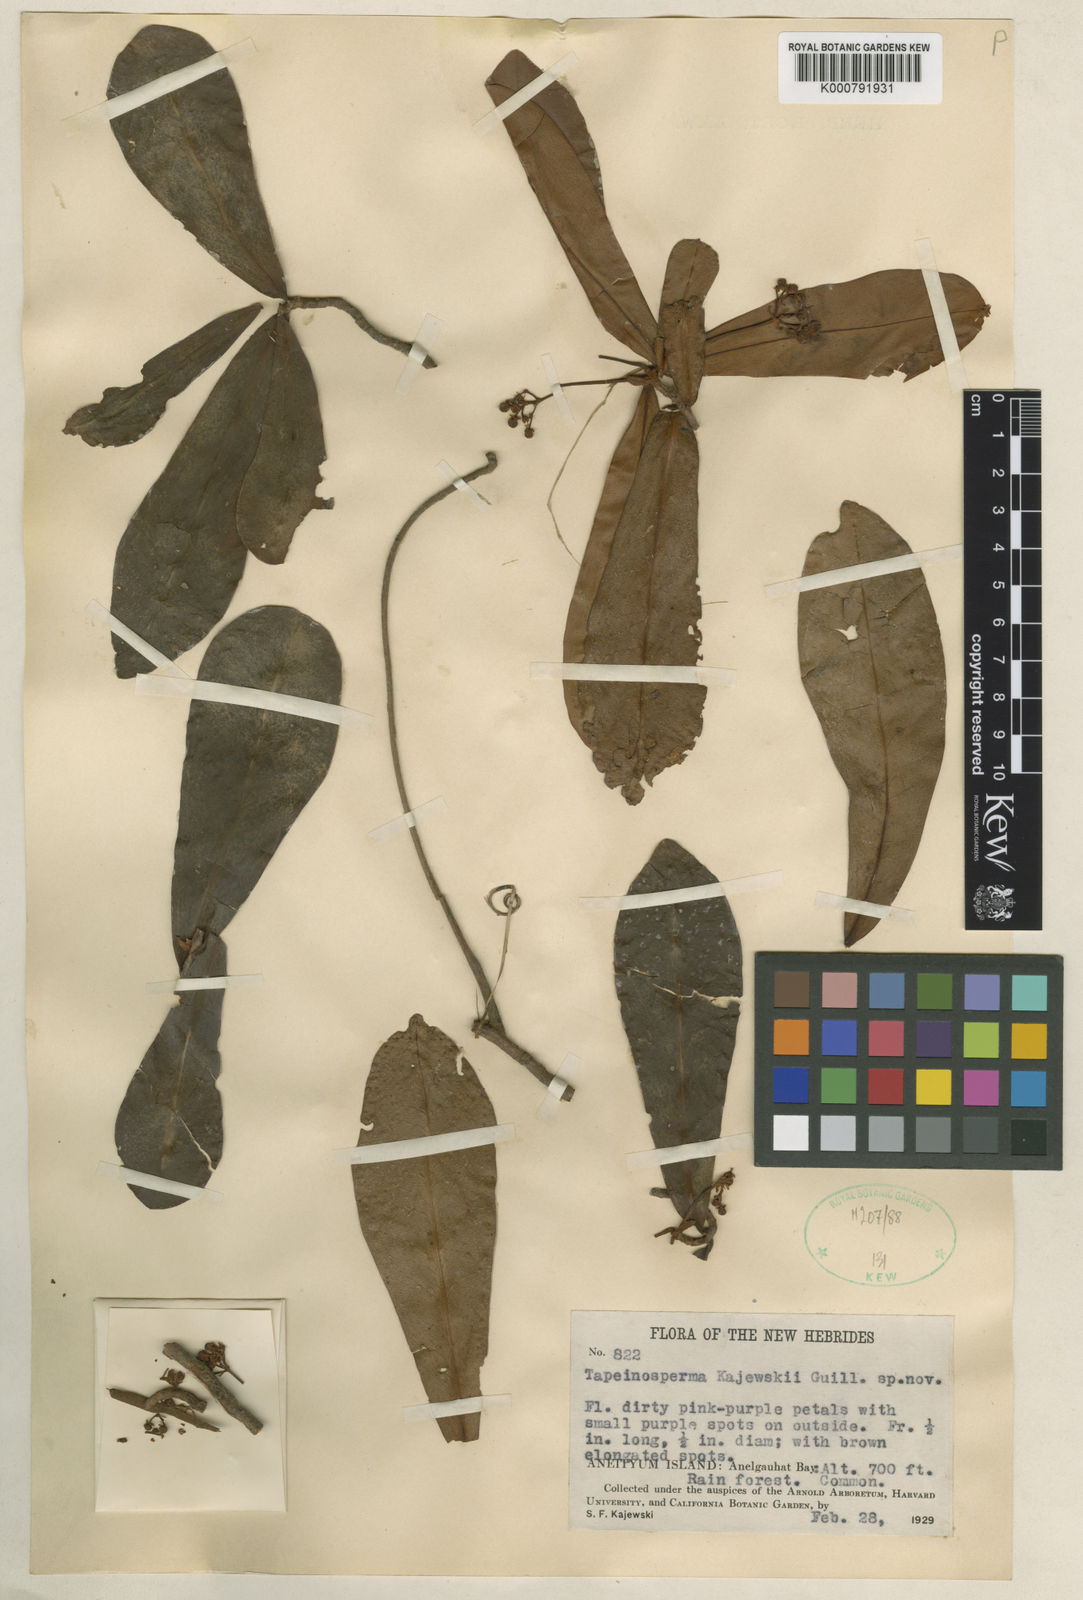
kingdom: Plantae
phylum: Tracheophyta
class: Magnoliopsida
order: Ericales
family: Primulaceae
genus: Tapeinosperma
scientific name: Tapeinosperma kajewskii
